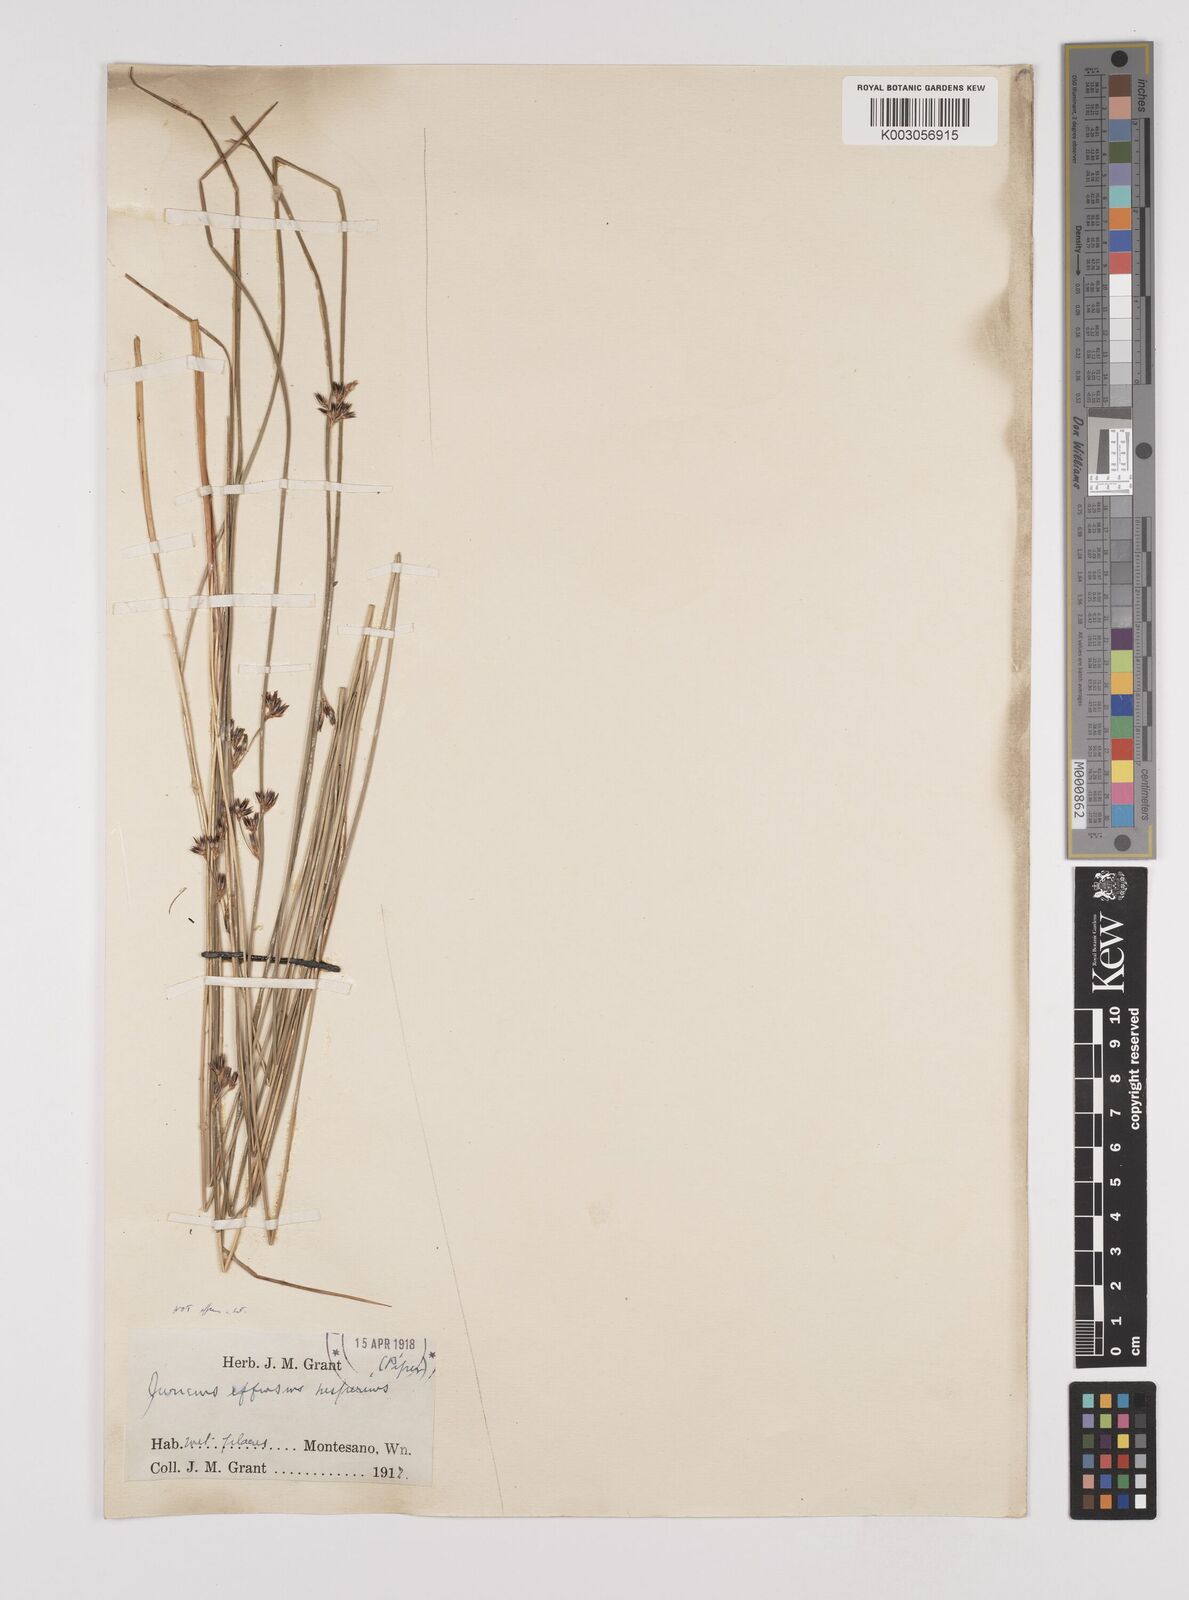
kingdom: Plantae
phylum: Tracheophyta
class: Liliopsida
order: Poales
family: Juncaceae
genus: Juncus
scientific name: Juncus arcticus
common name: Arctic rush
